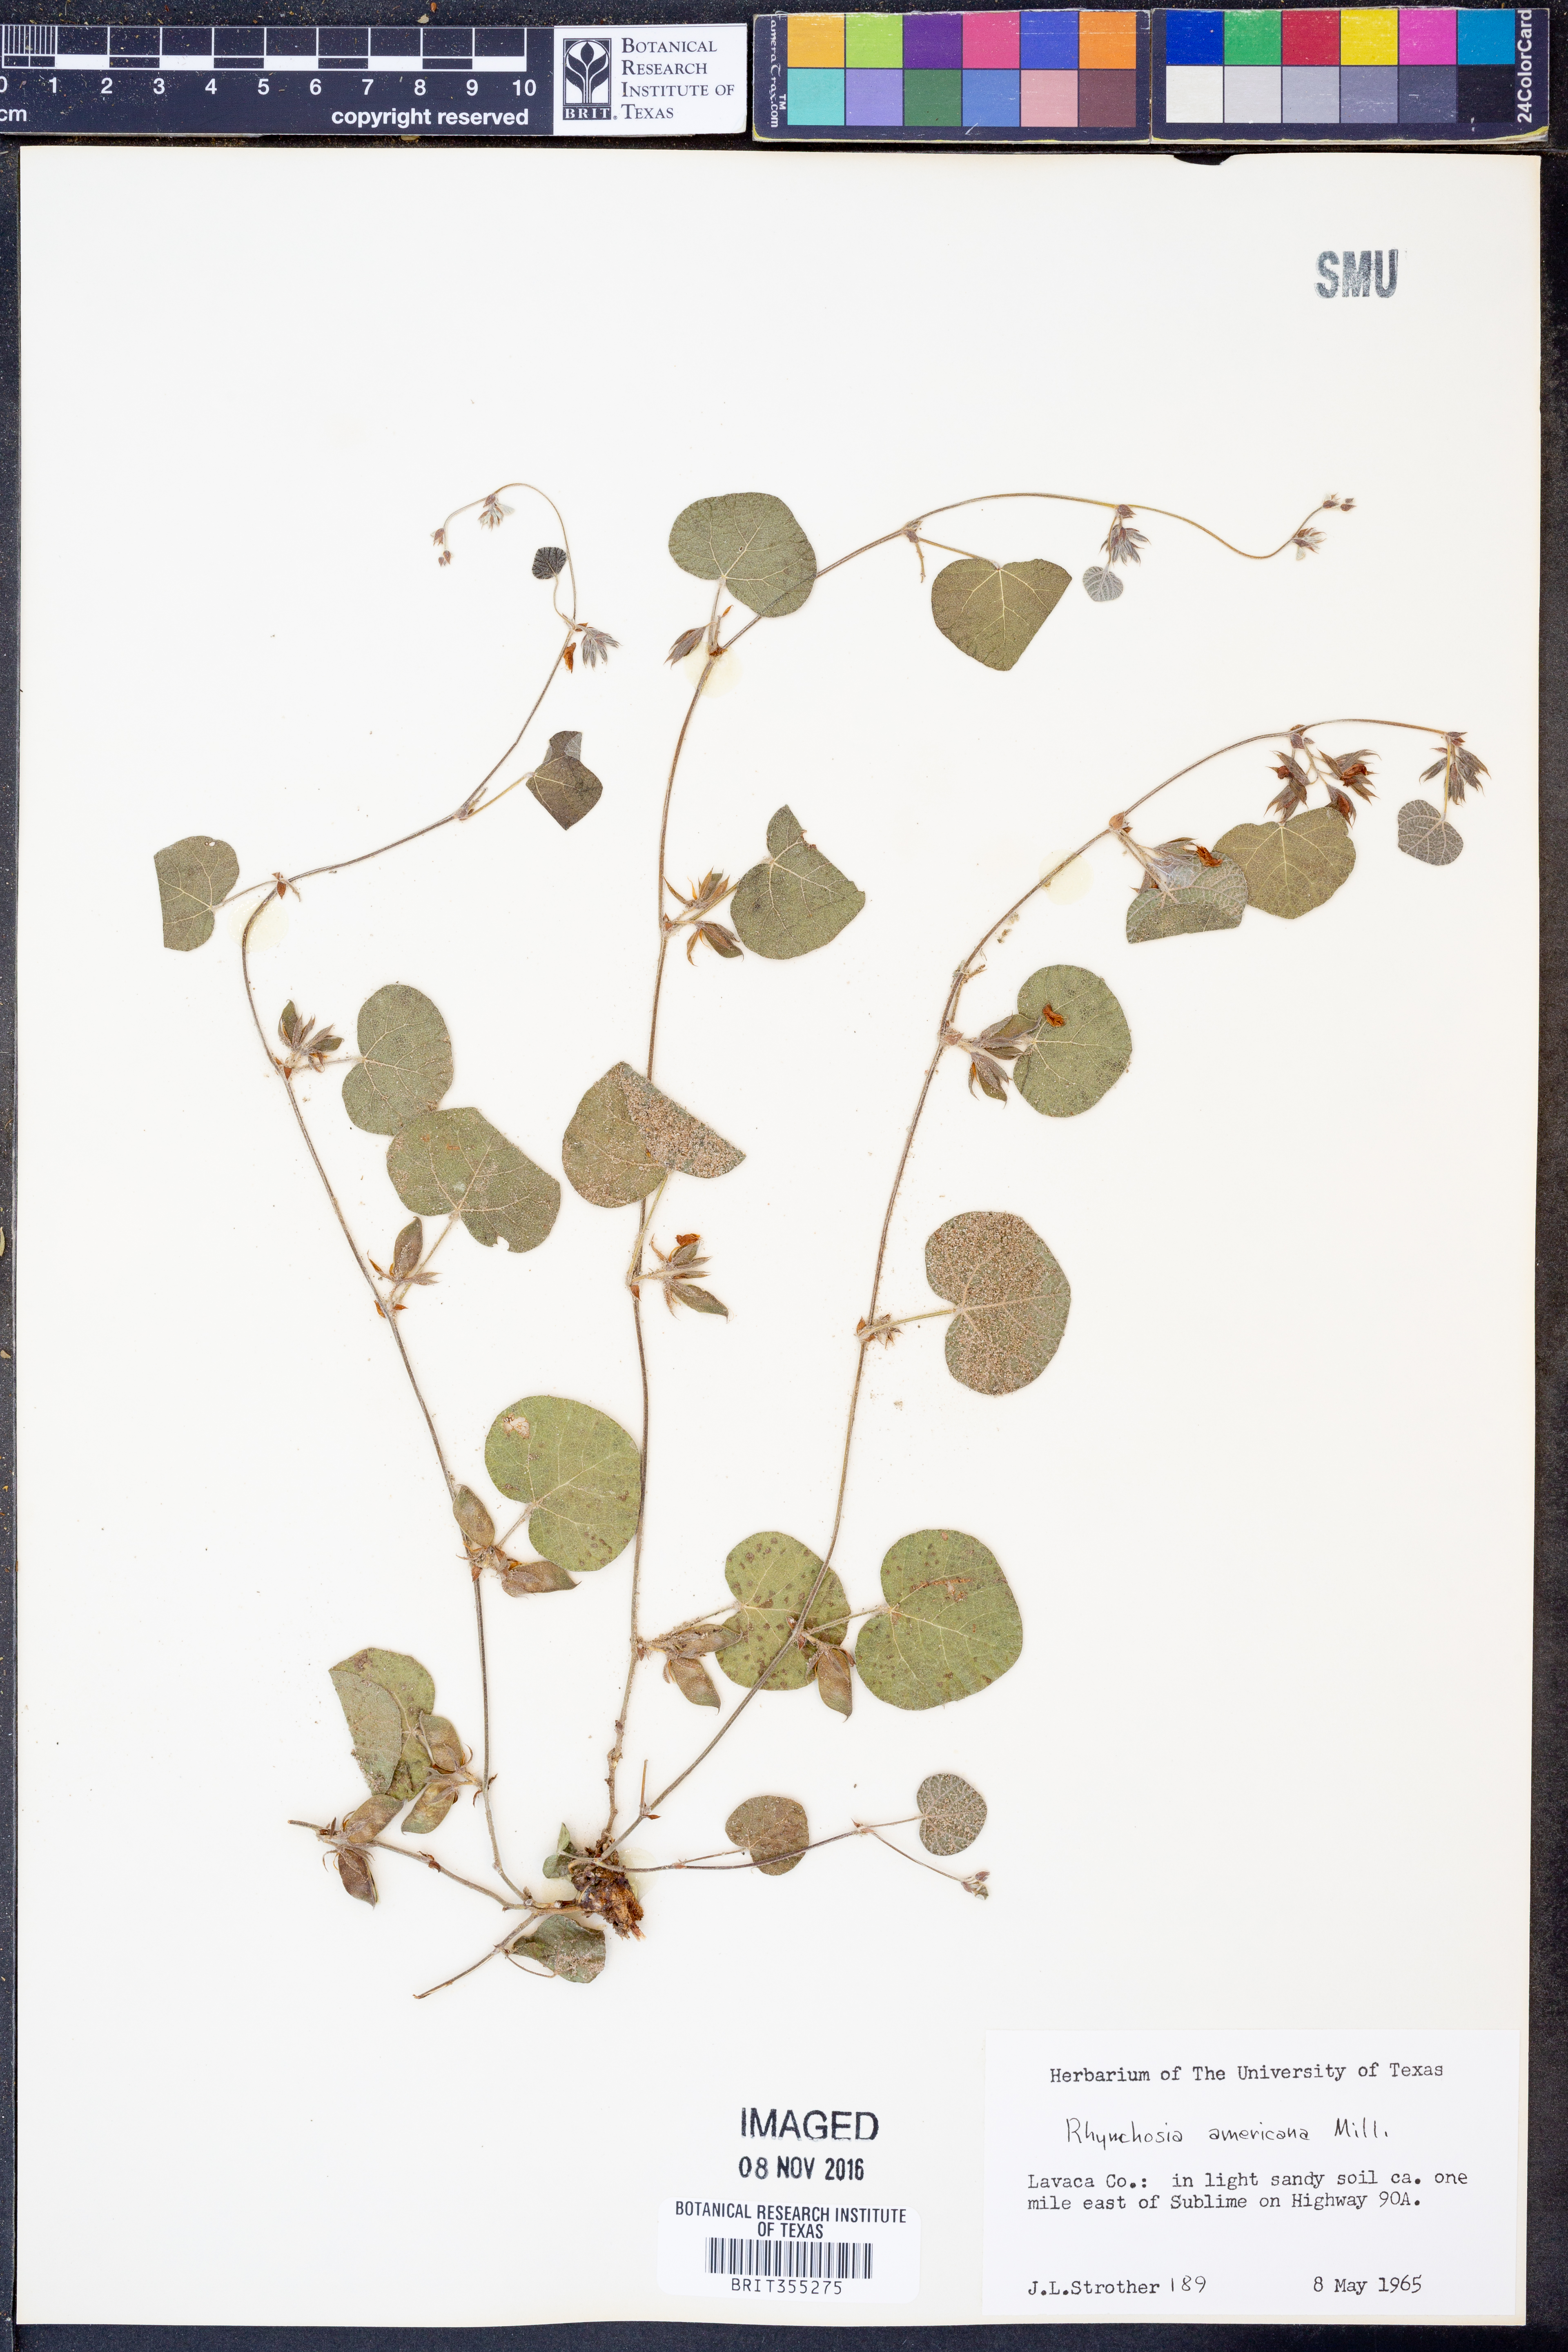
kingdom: Plantae
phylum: Tracheophyta
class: Magnoliopsida
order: Fabales
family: Fabaceae
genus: Rhynchosia
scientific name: Rhynchosia americana
